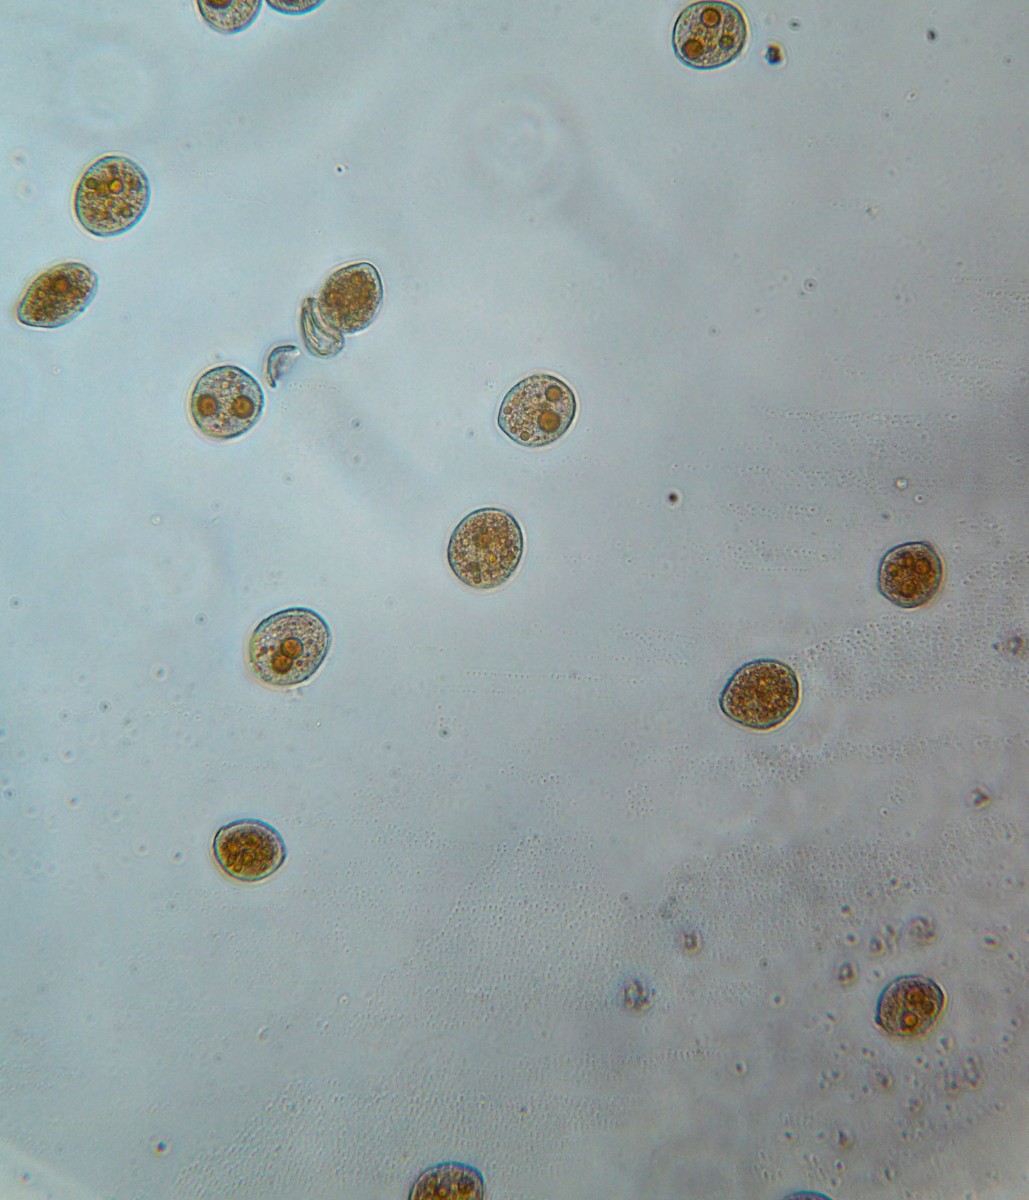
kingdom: Fungi
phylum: Basidiomycota
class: Pucciniomycetes
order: Pucciniales
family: Pucciniaceae
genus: Puccinia
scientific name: Puccinia hysterium
